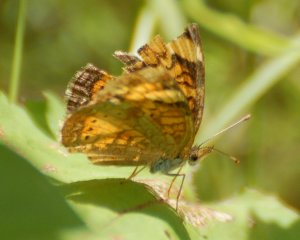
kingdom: Animalia
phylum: Arthropoda
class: Insecta
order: Lepidoptera
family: Nymphalidae
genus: Phyciodes
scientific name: Phyciodes tharos
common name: Northern Crescent
